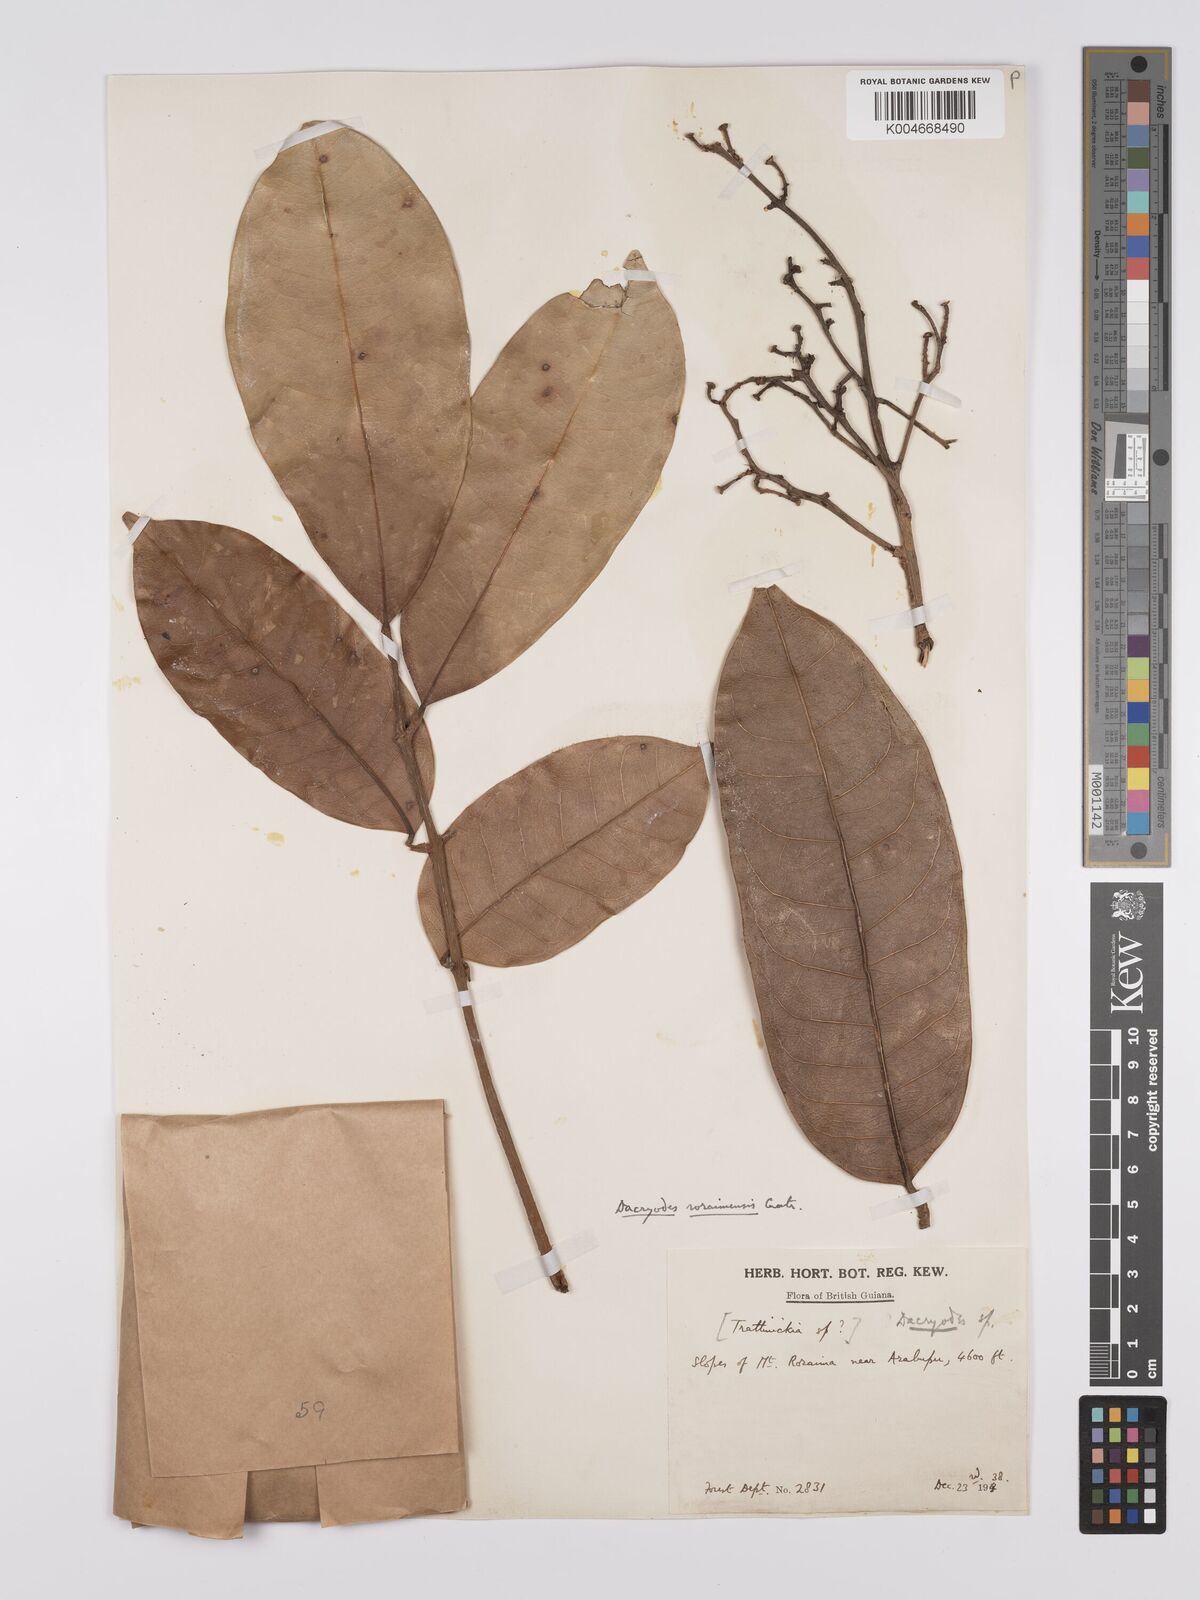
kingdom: Plantae
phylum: Tracheophyta
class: Magnoliopsida
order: Sapindales
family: Burseraceae
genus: Dacryodes
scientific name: Dacryodes roraimensis
